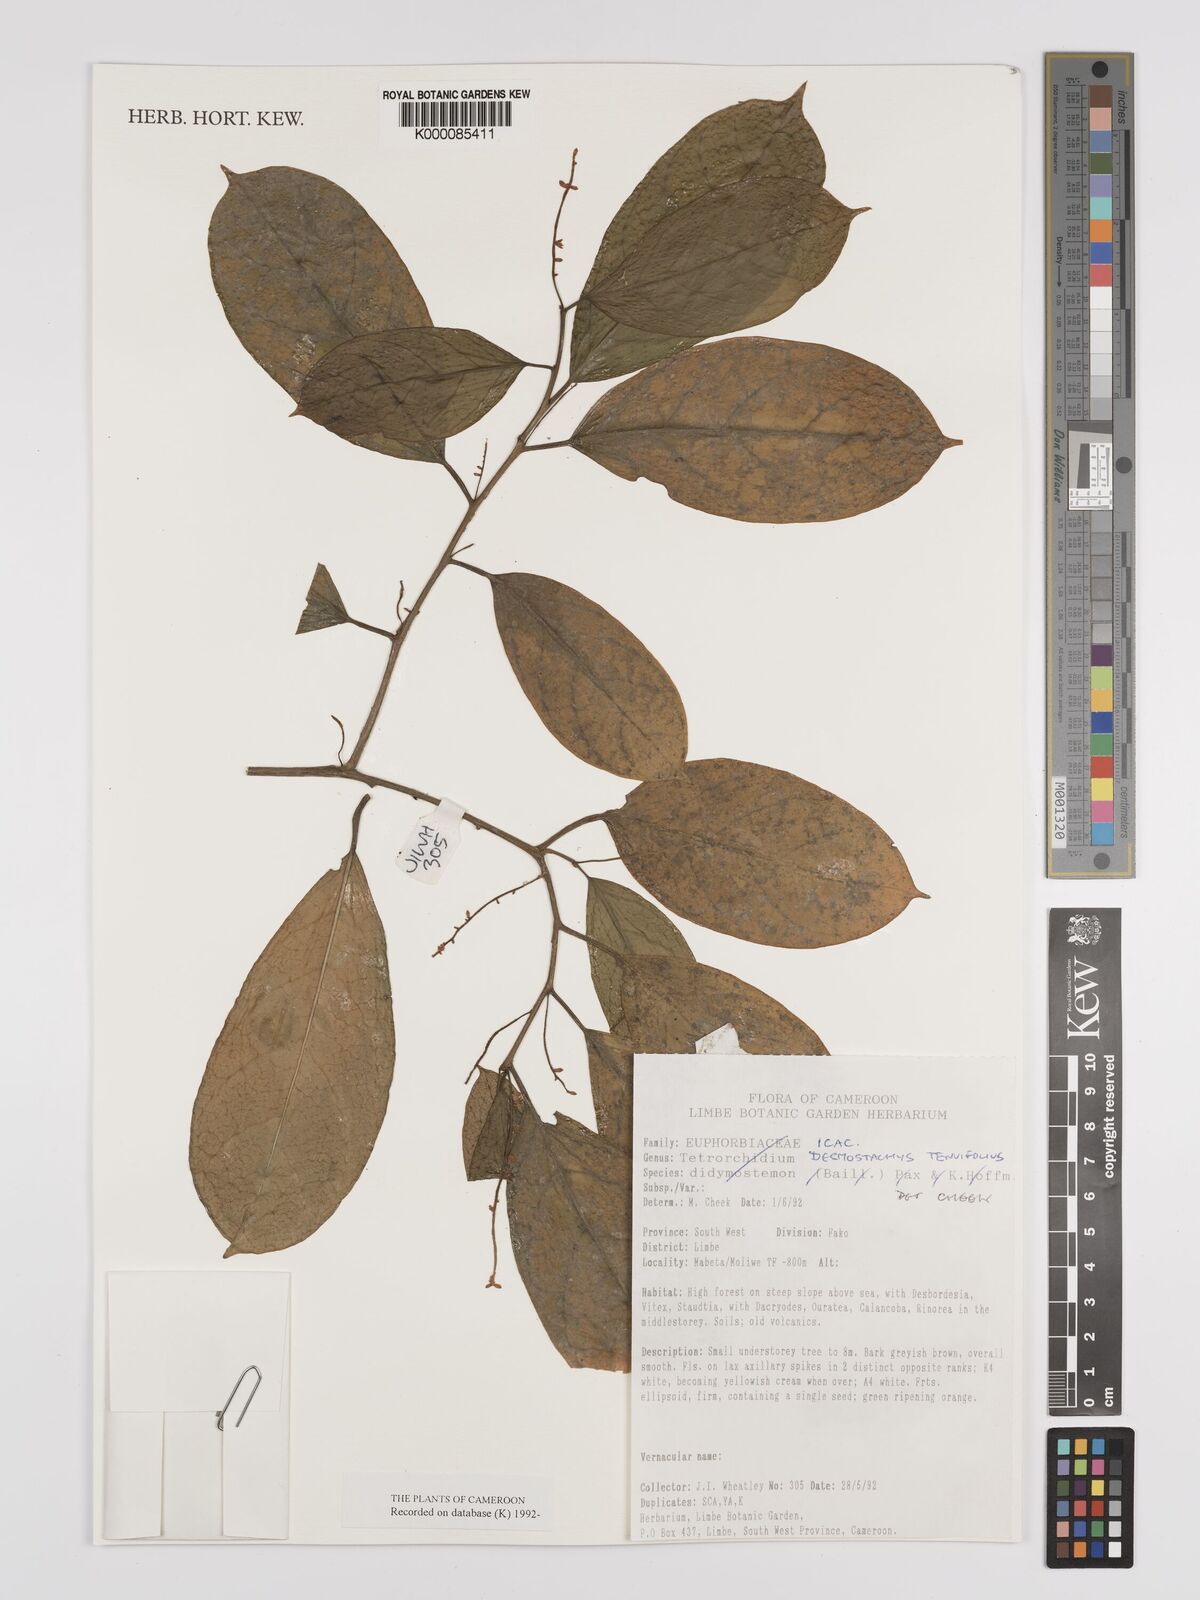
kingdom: Plantae
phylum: Tracheophyta
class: Magnoliopsida
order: Icacinales
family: Icacinaceae
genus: Vadensea
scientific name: Vadensea tenuifolia
